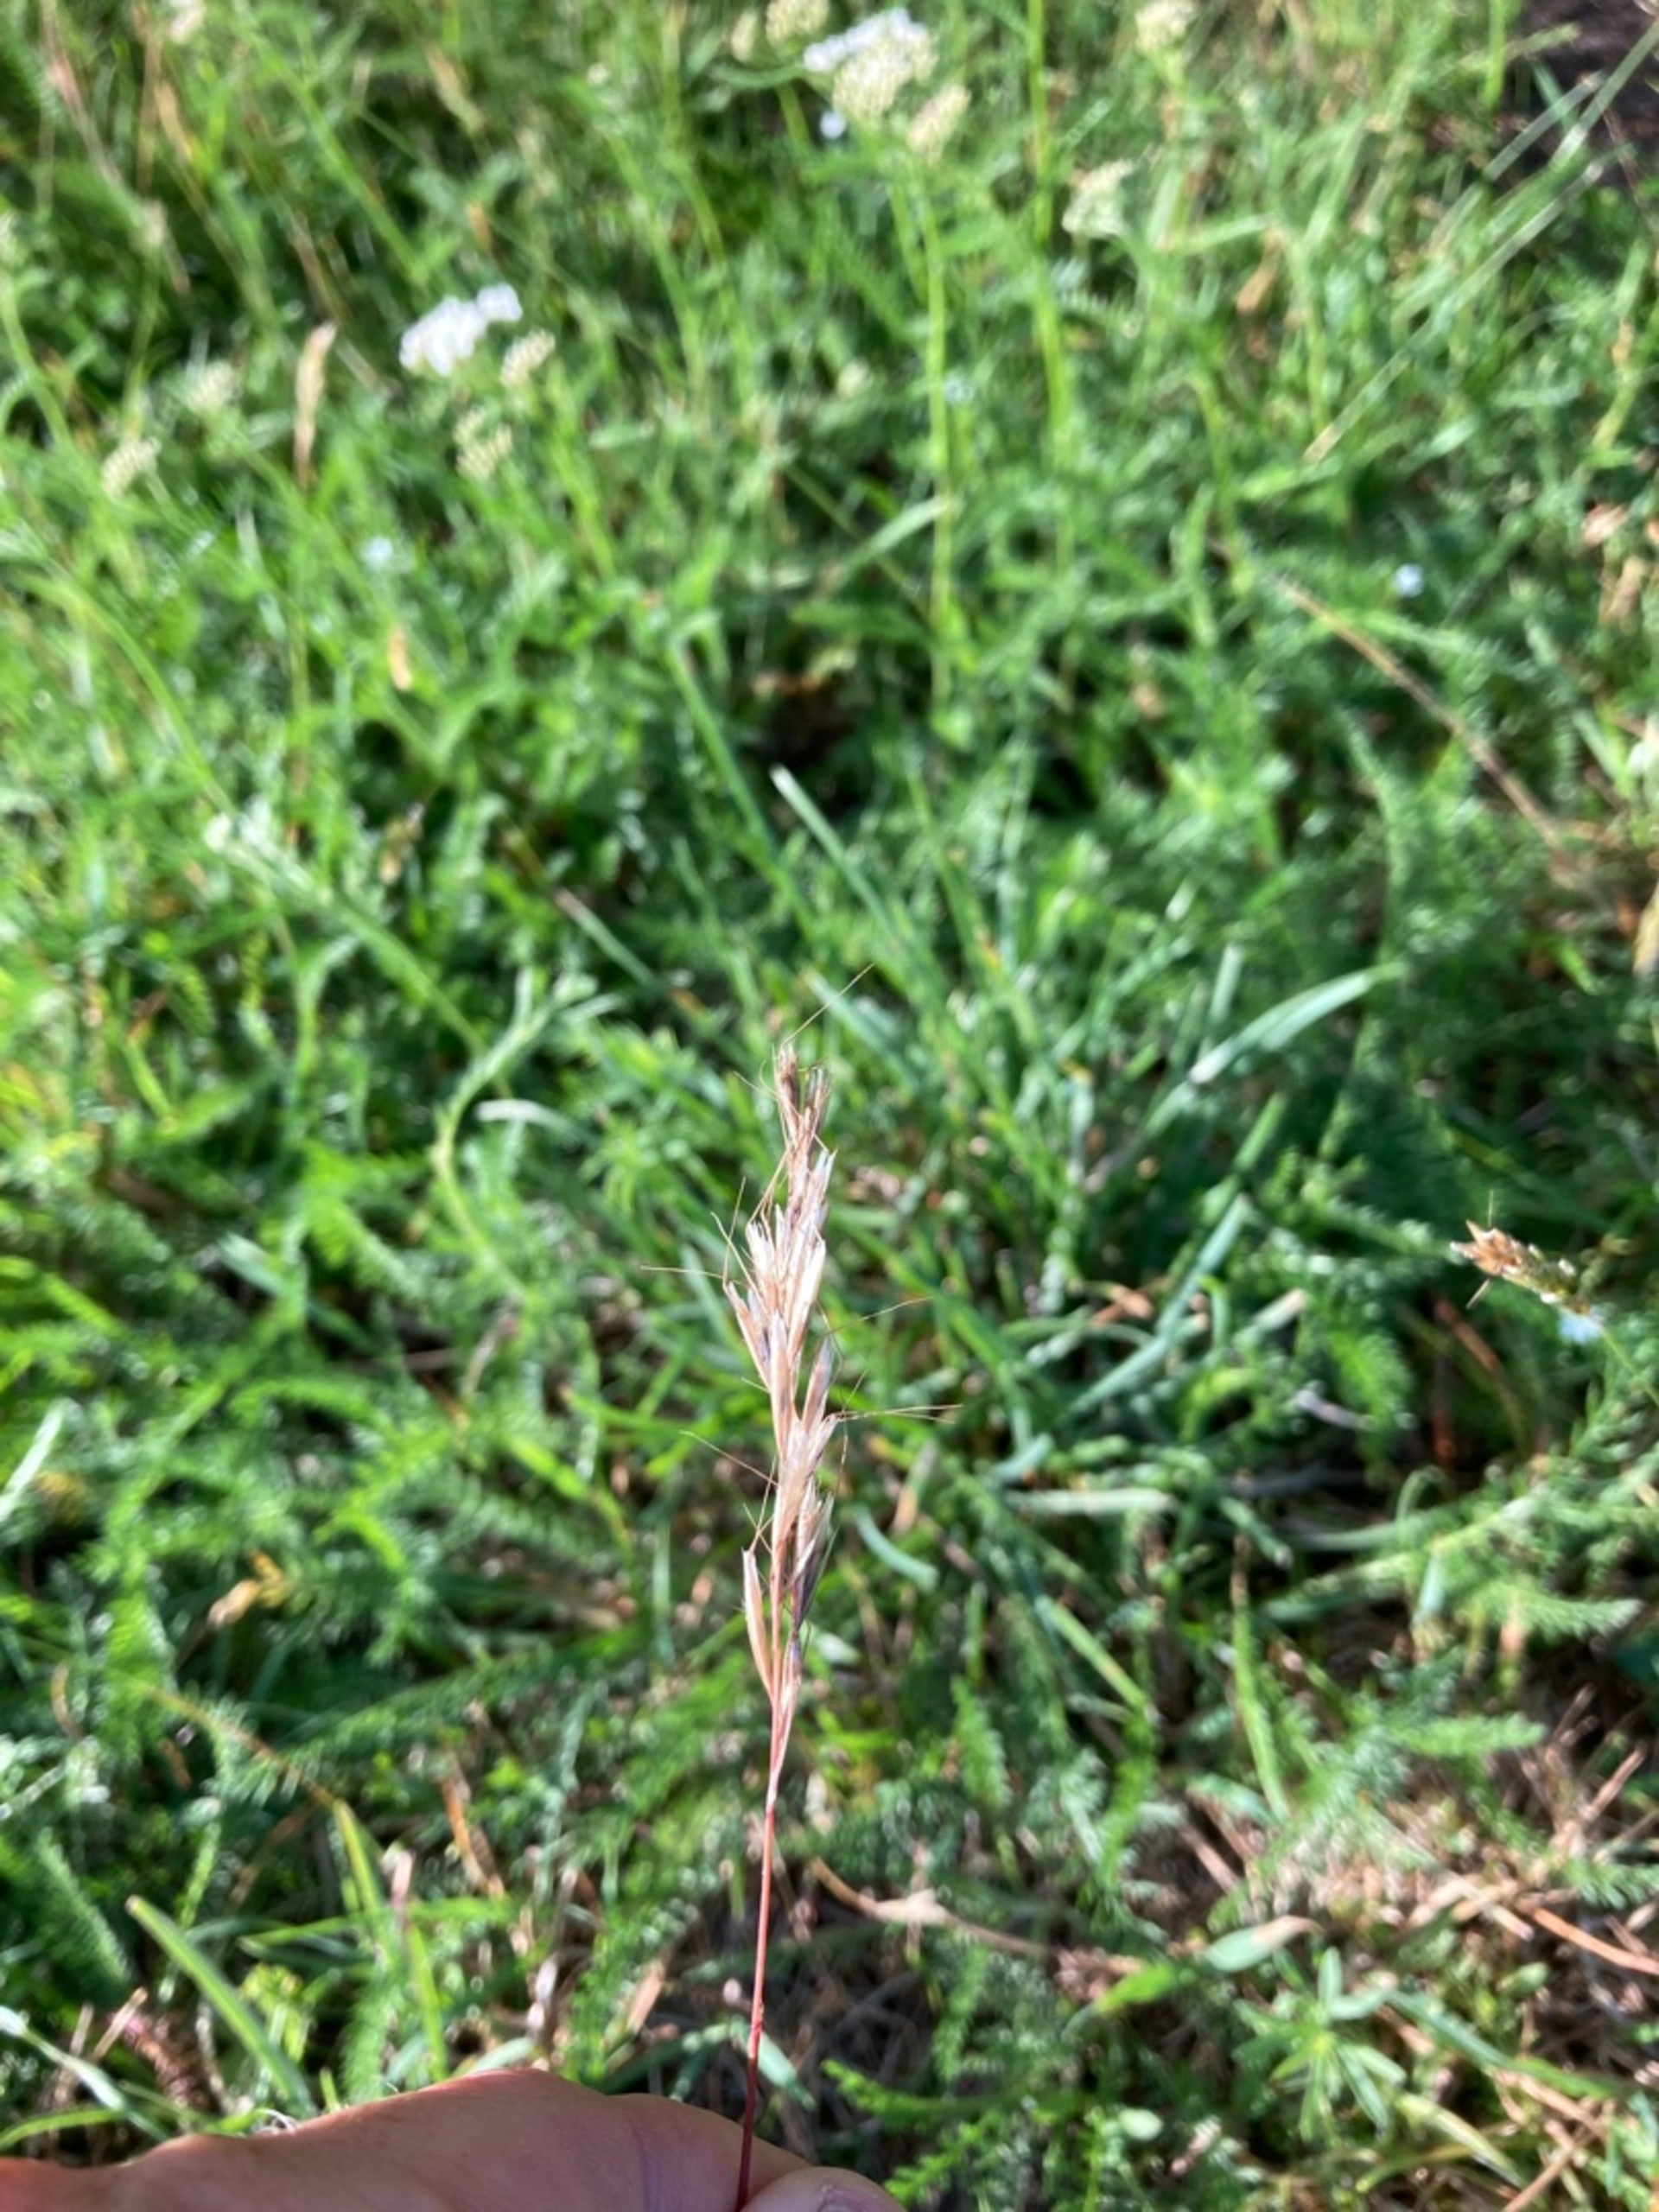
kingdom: Plantae
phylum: Tracheophyta
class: Liliopsida
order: Poales
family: Poaceae
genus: Avenula
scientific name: Avenula pubescens
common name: Dunet havre
